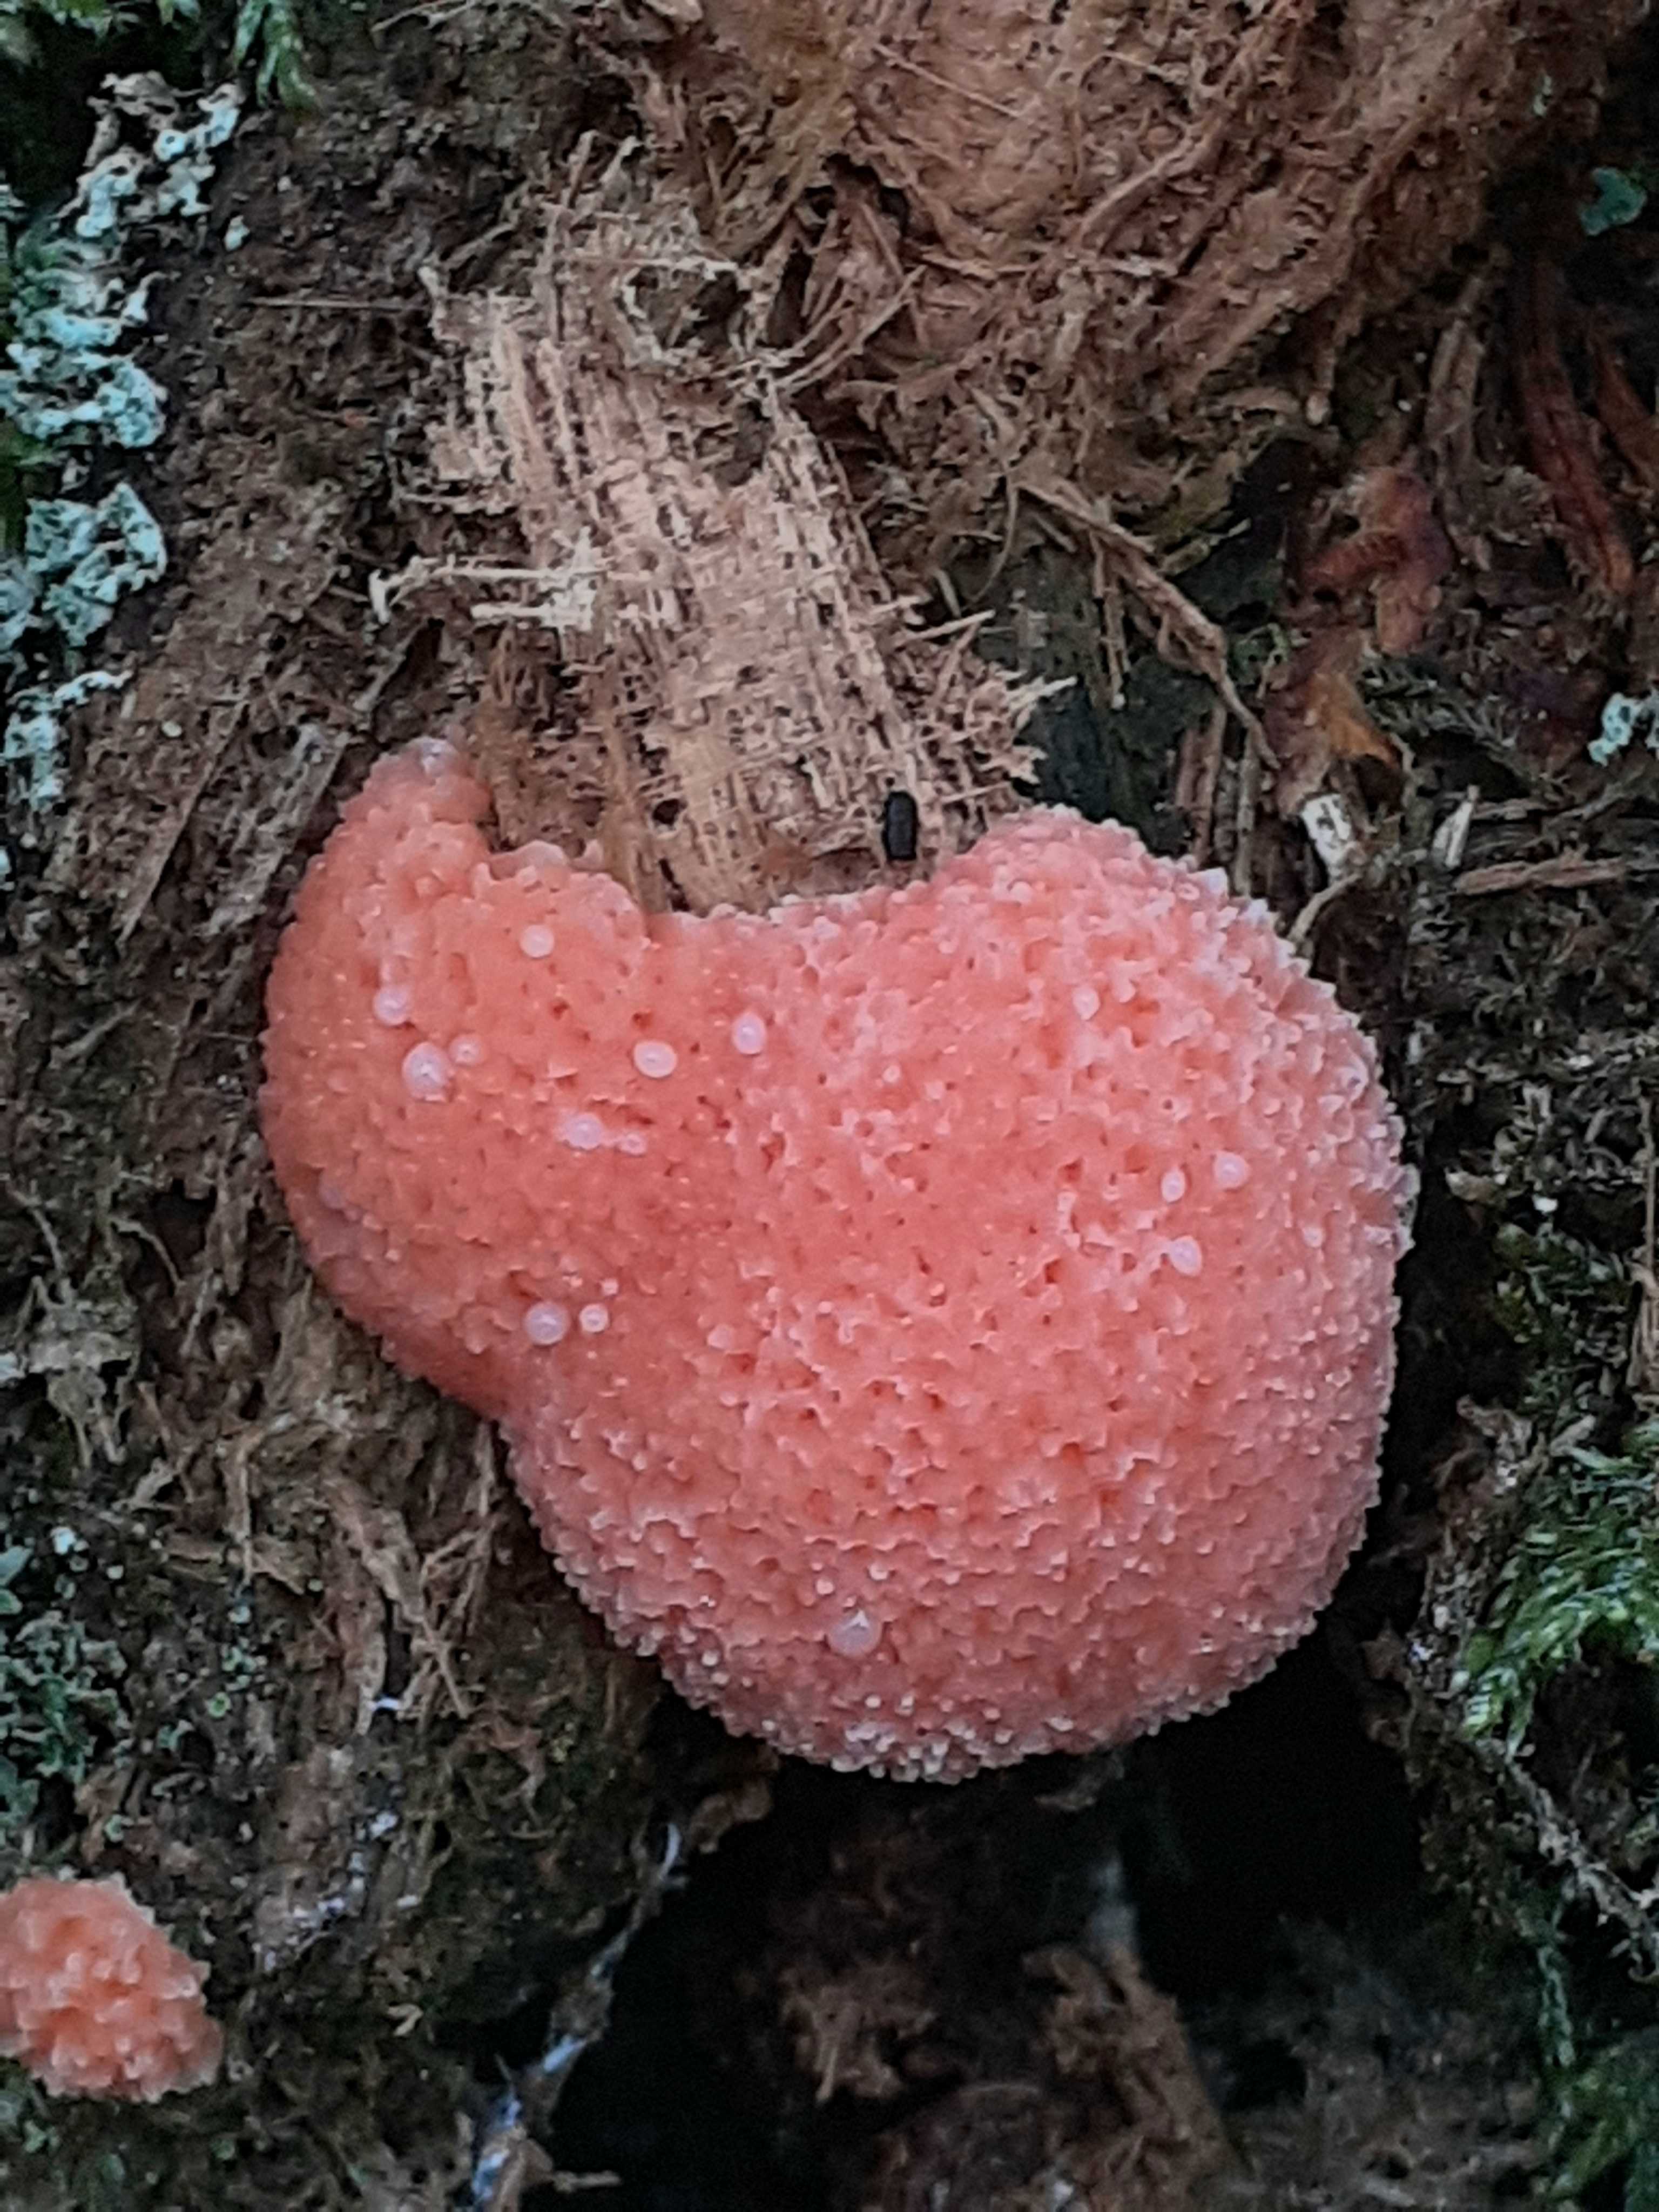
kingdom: Protozoa
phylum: Mycetozoa
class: Myxomycetes
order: Cribrariales
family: Tubiferaceae
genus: Tubifera
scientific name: Tubifera ferruginosa
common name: kanel-støvrør
